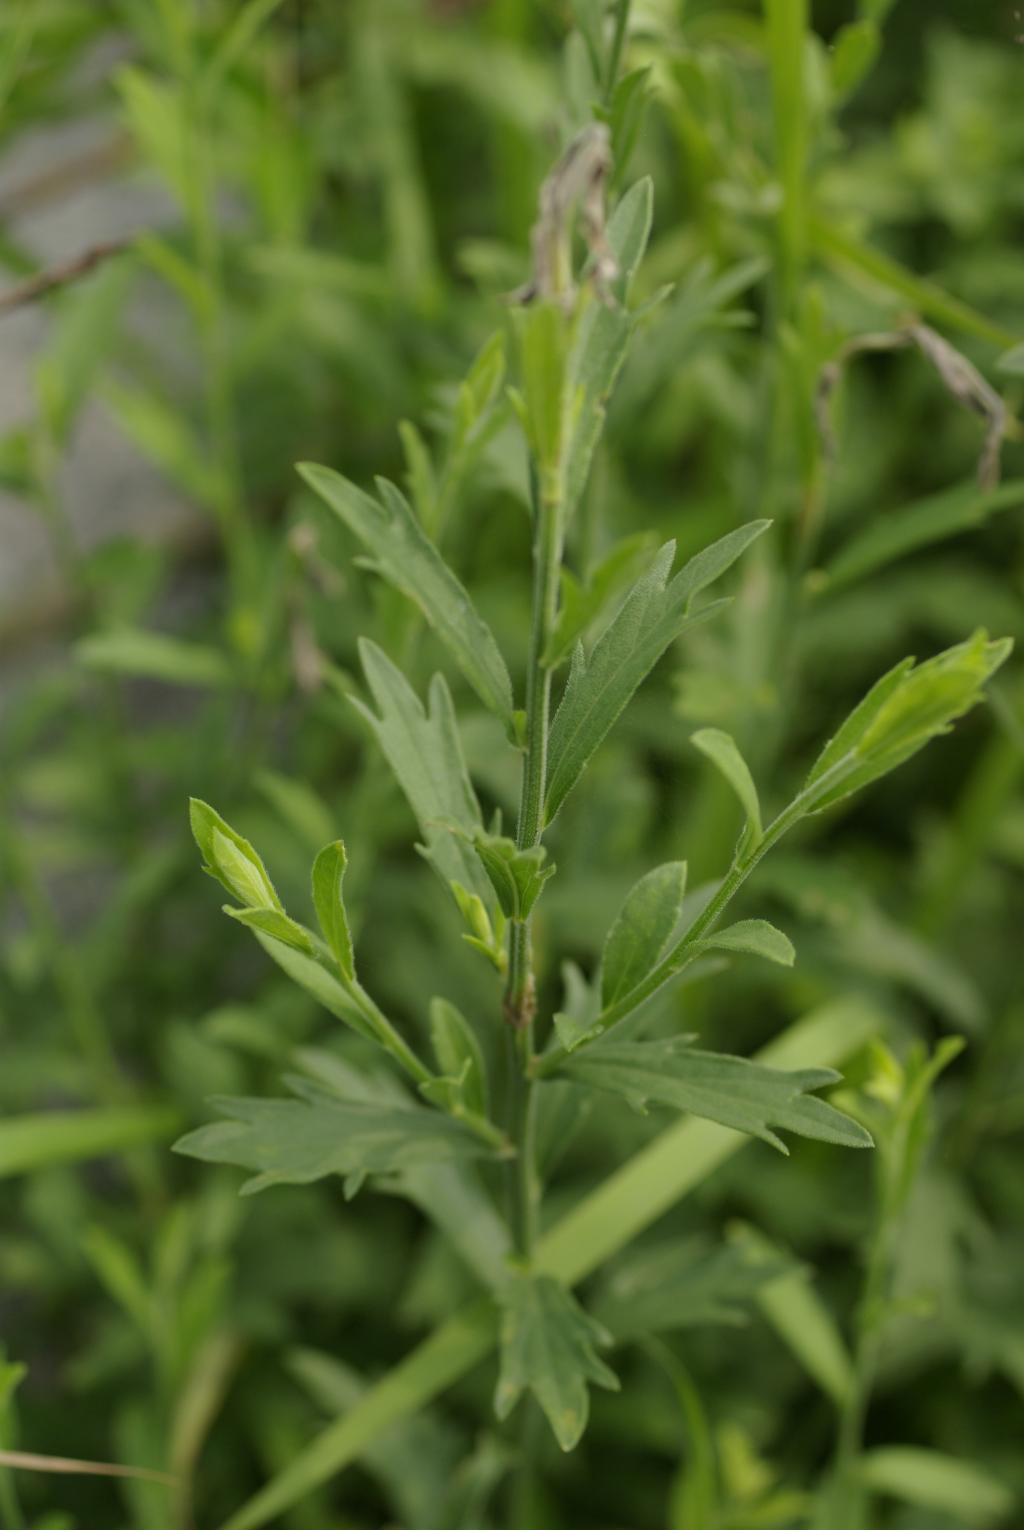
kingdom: Plantae
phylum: Tracheophyta
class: Magnoliopsida
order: Asterales
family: Asteraceae
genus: Aster
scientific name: Aster shimadae
